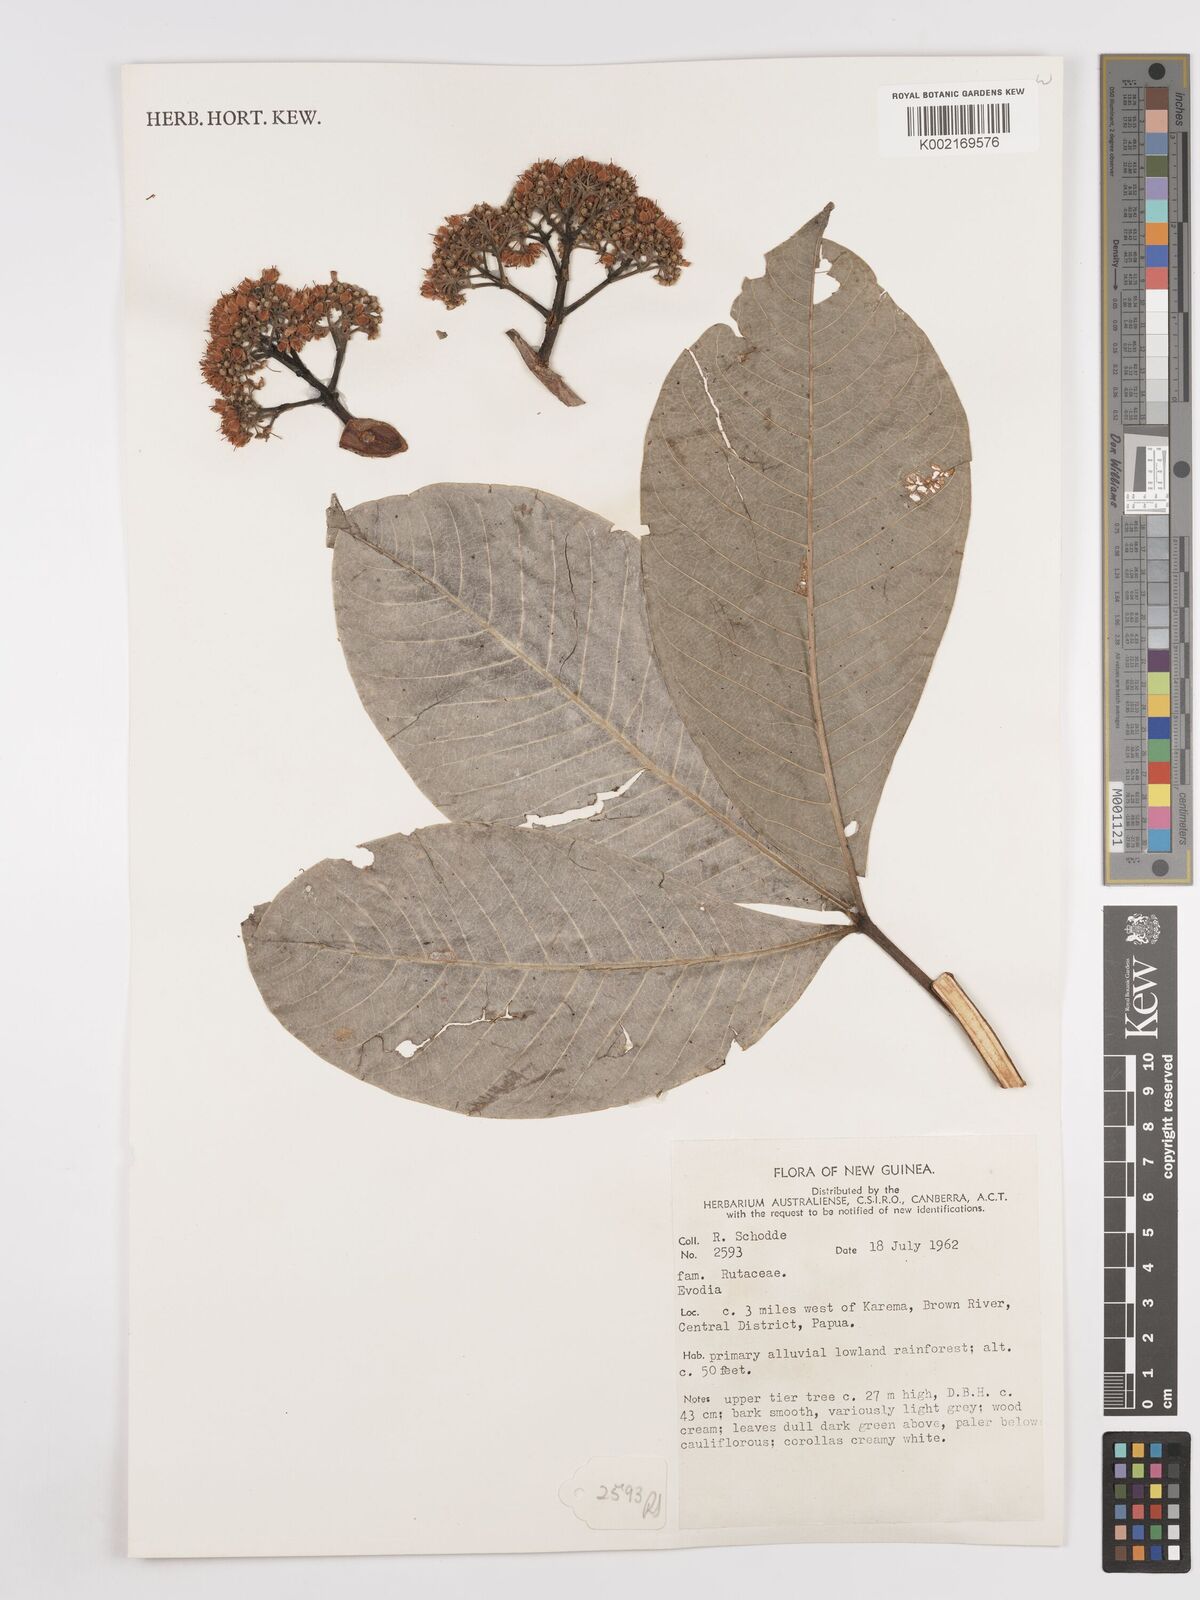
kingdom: Plantae
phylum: Tracheophyta
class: Magnoliopsida
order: Sapindales
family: Rutaceae
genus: Euodia
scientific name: Euodia
